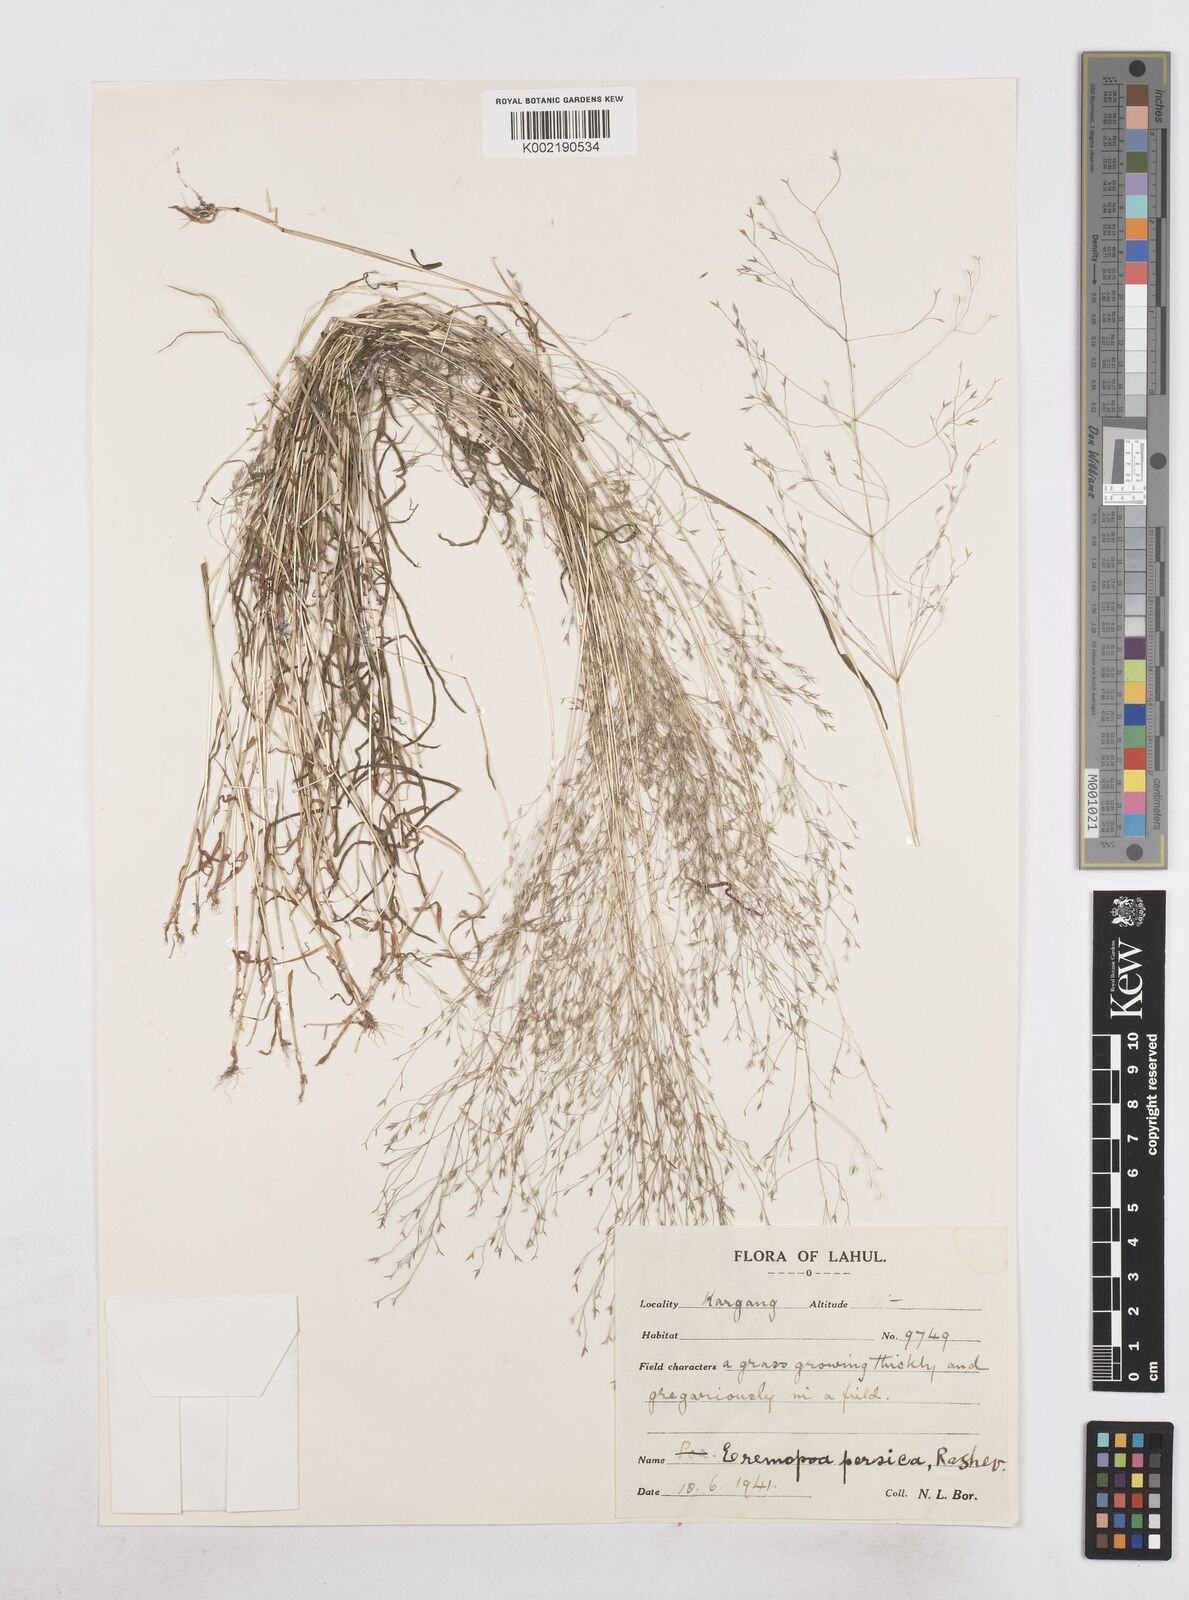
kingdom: Plantae
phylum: Tracheophyta
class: Liliopsida
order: Poales
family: Poaceae
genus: Poa
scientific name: Poa diaphora
